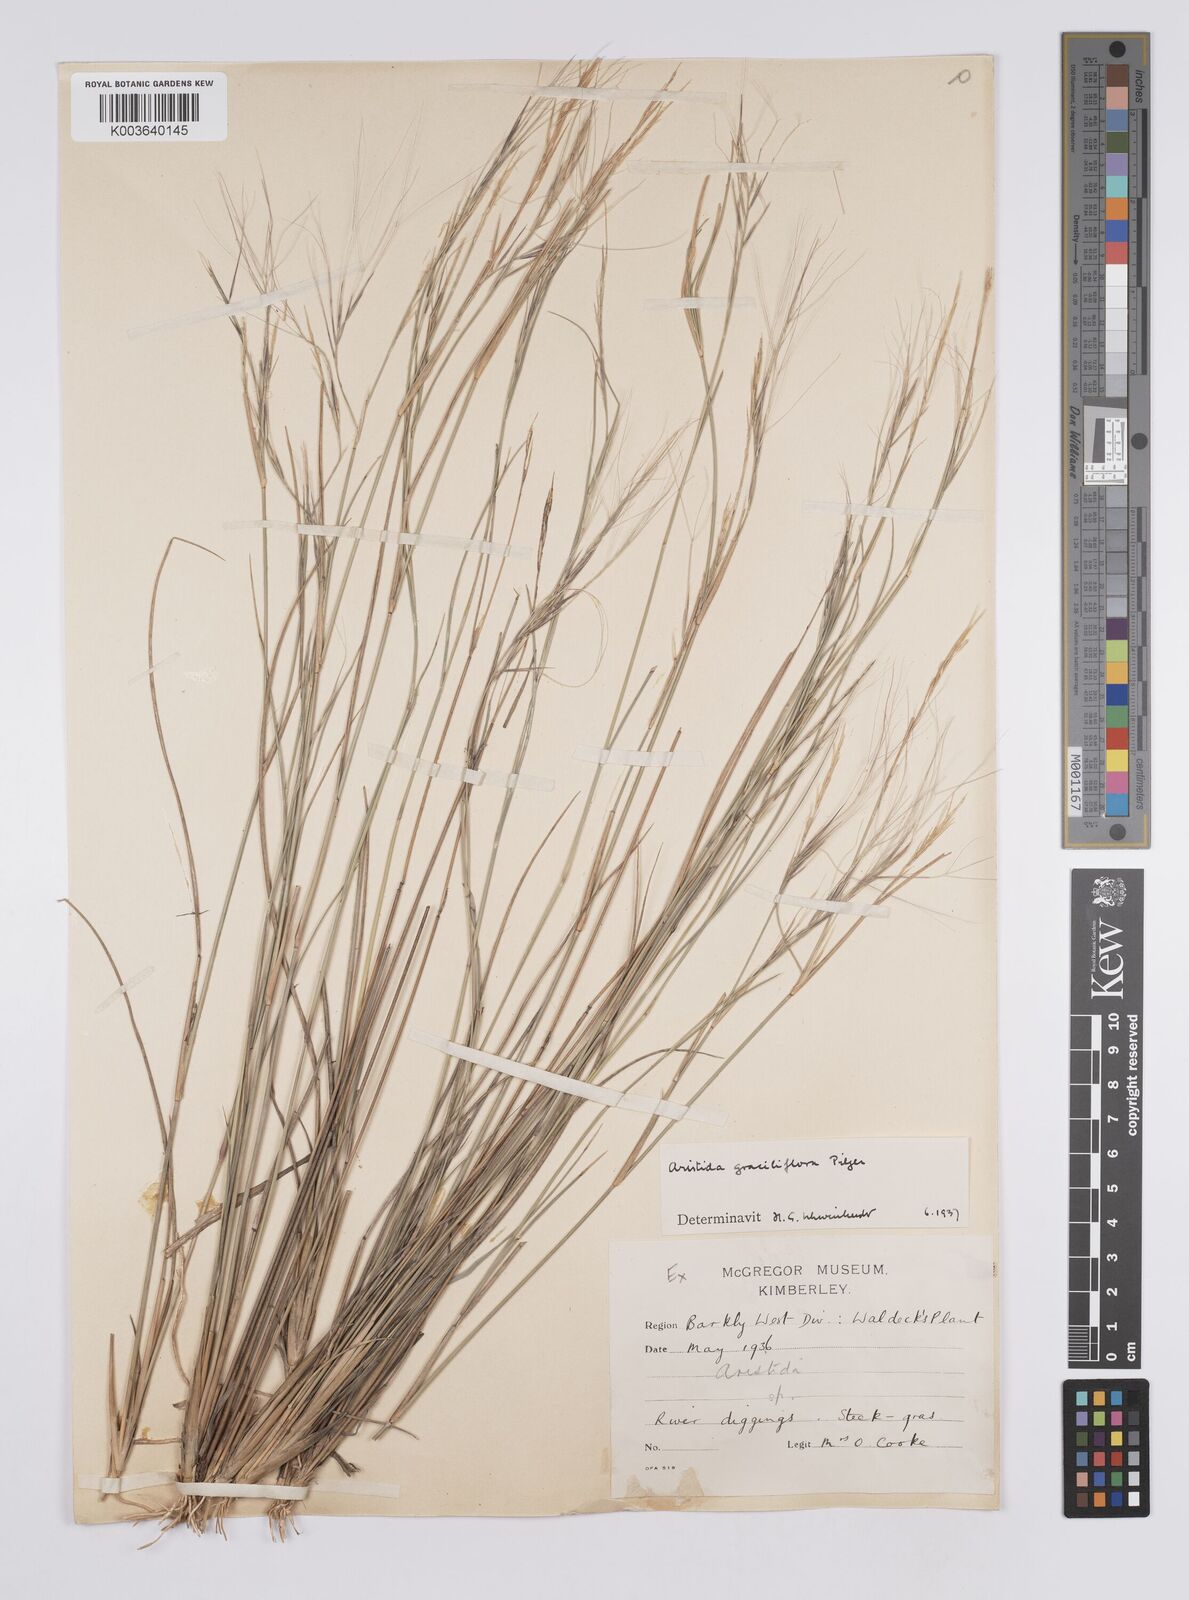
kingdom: Plantae
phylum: Tracheophyta
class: Liliopsida
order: Poales
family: Poaceae
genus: Aristida
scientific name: Aristida stipitata
